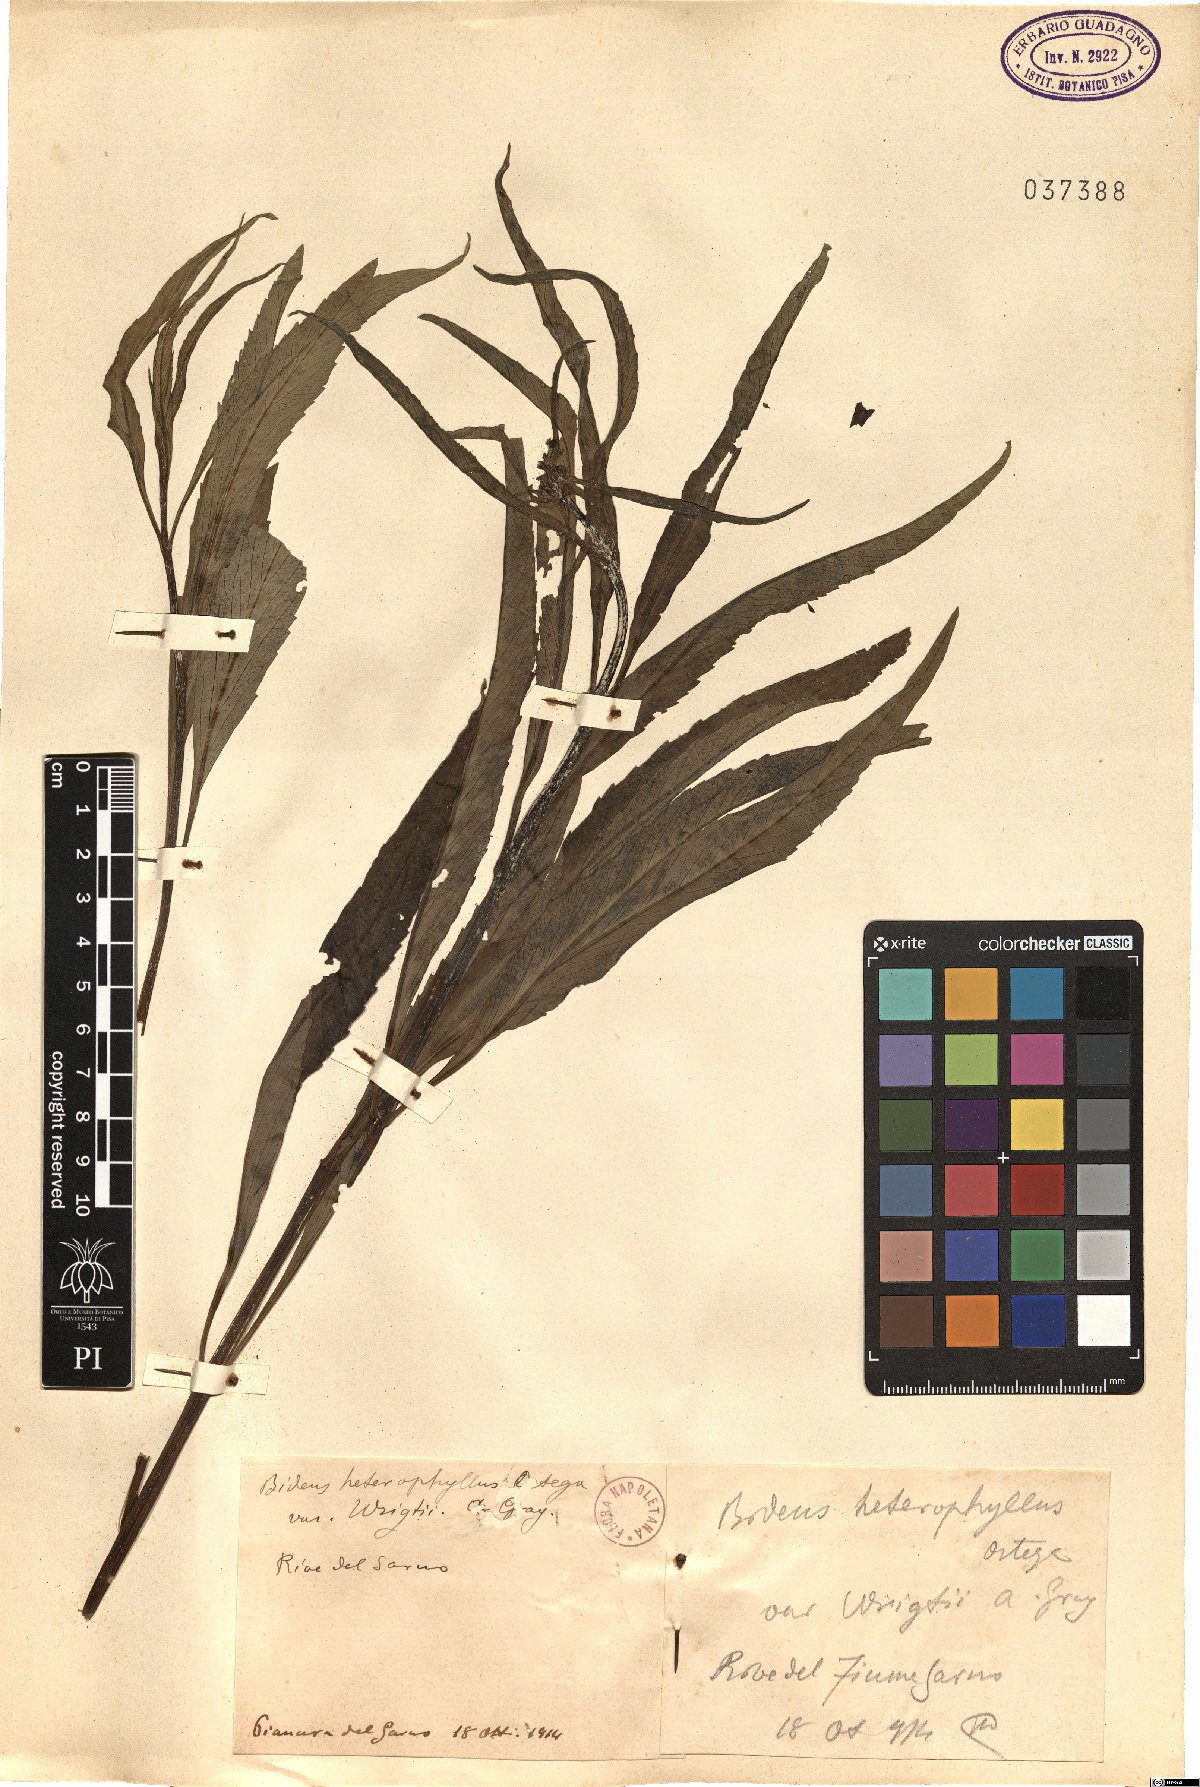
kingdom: Plantae
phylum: Tracheophyta
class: Magnoliopsida
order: Asterales
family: Asteraceae
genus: Bidens
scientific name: Bidens schaffneri
